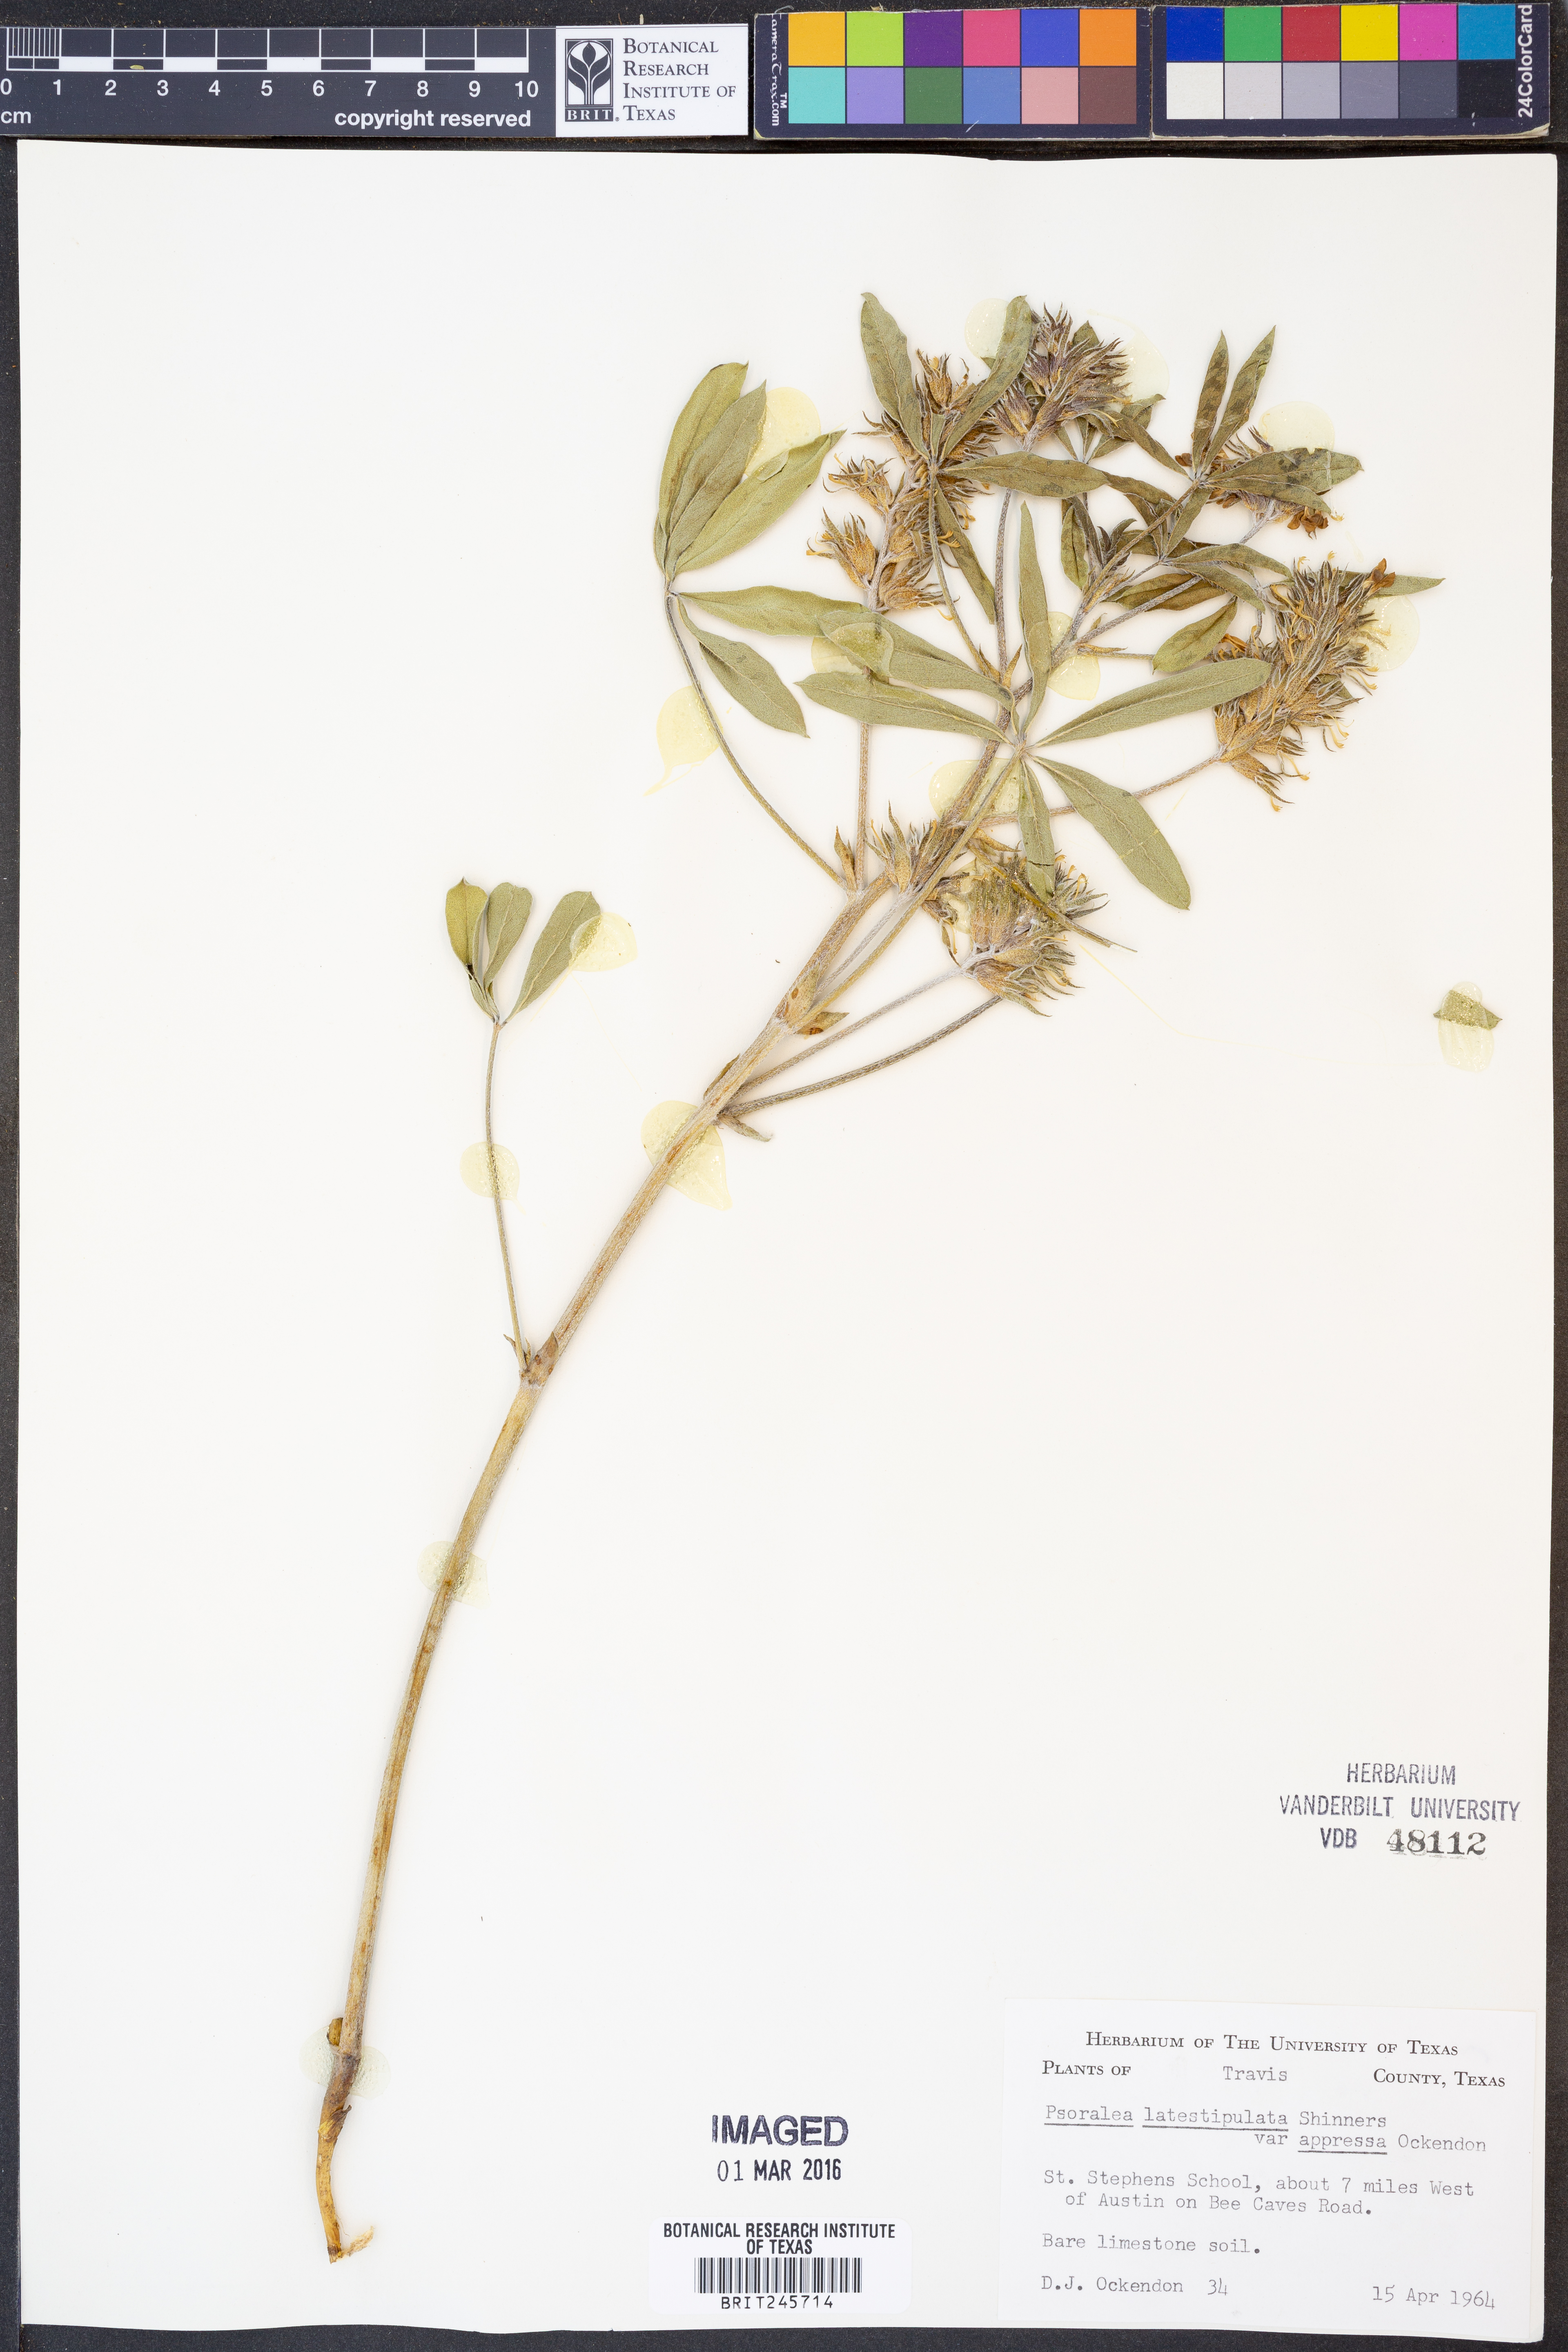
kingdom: Plantae
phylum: Tracheophyta
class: Magnoliopsida
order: Fabales
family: Fabaceae
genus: Pediomelum
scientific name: Pediomelum latestipulatum
